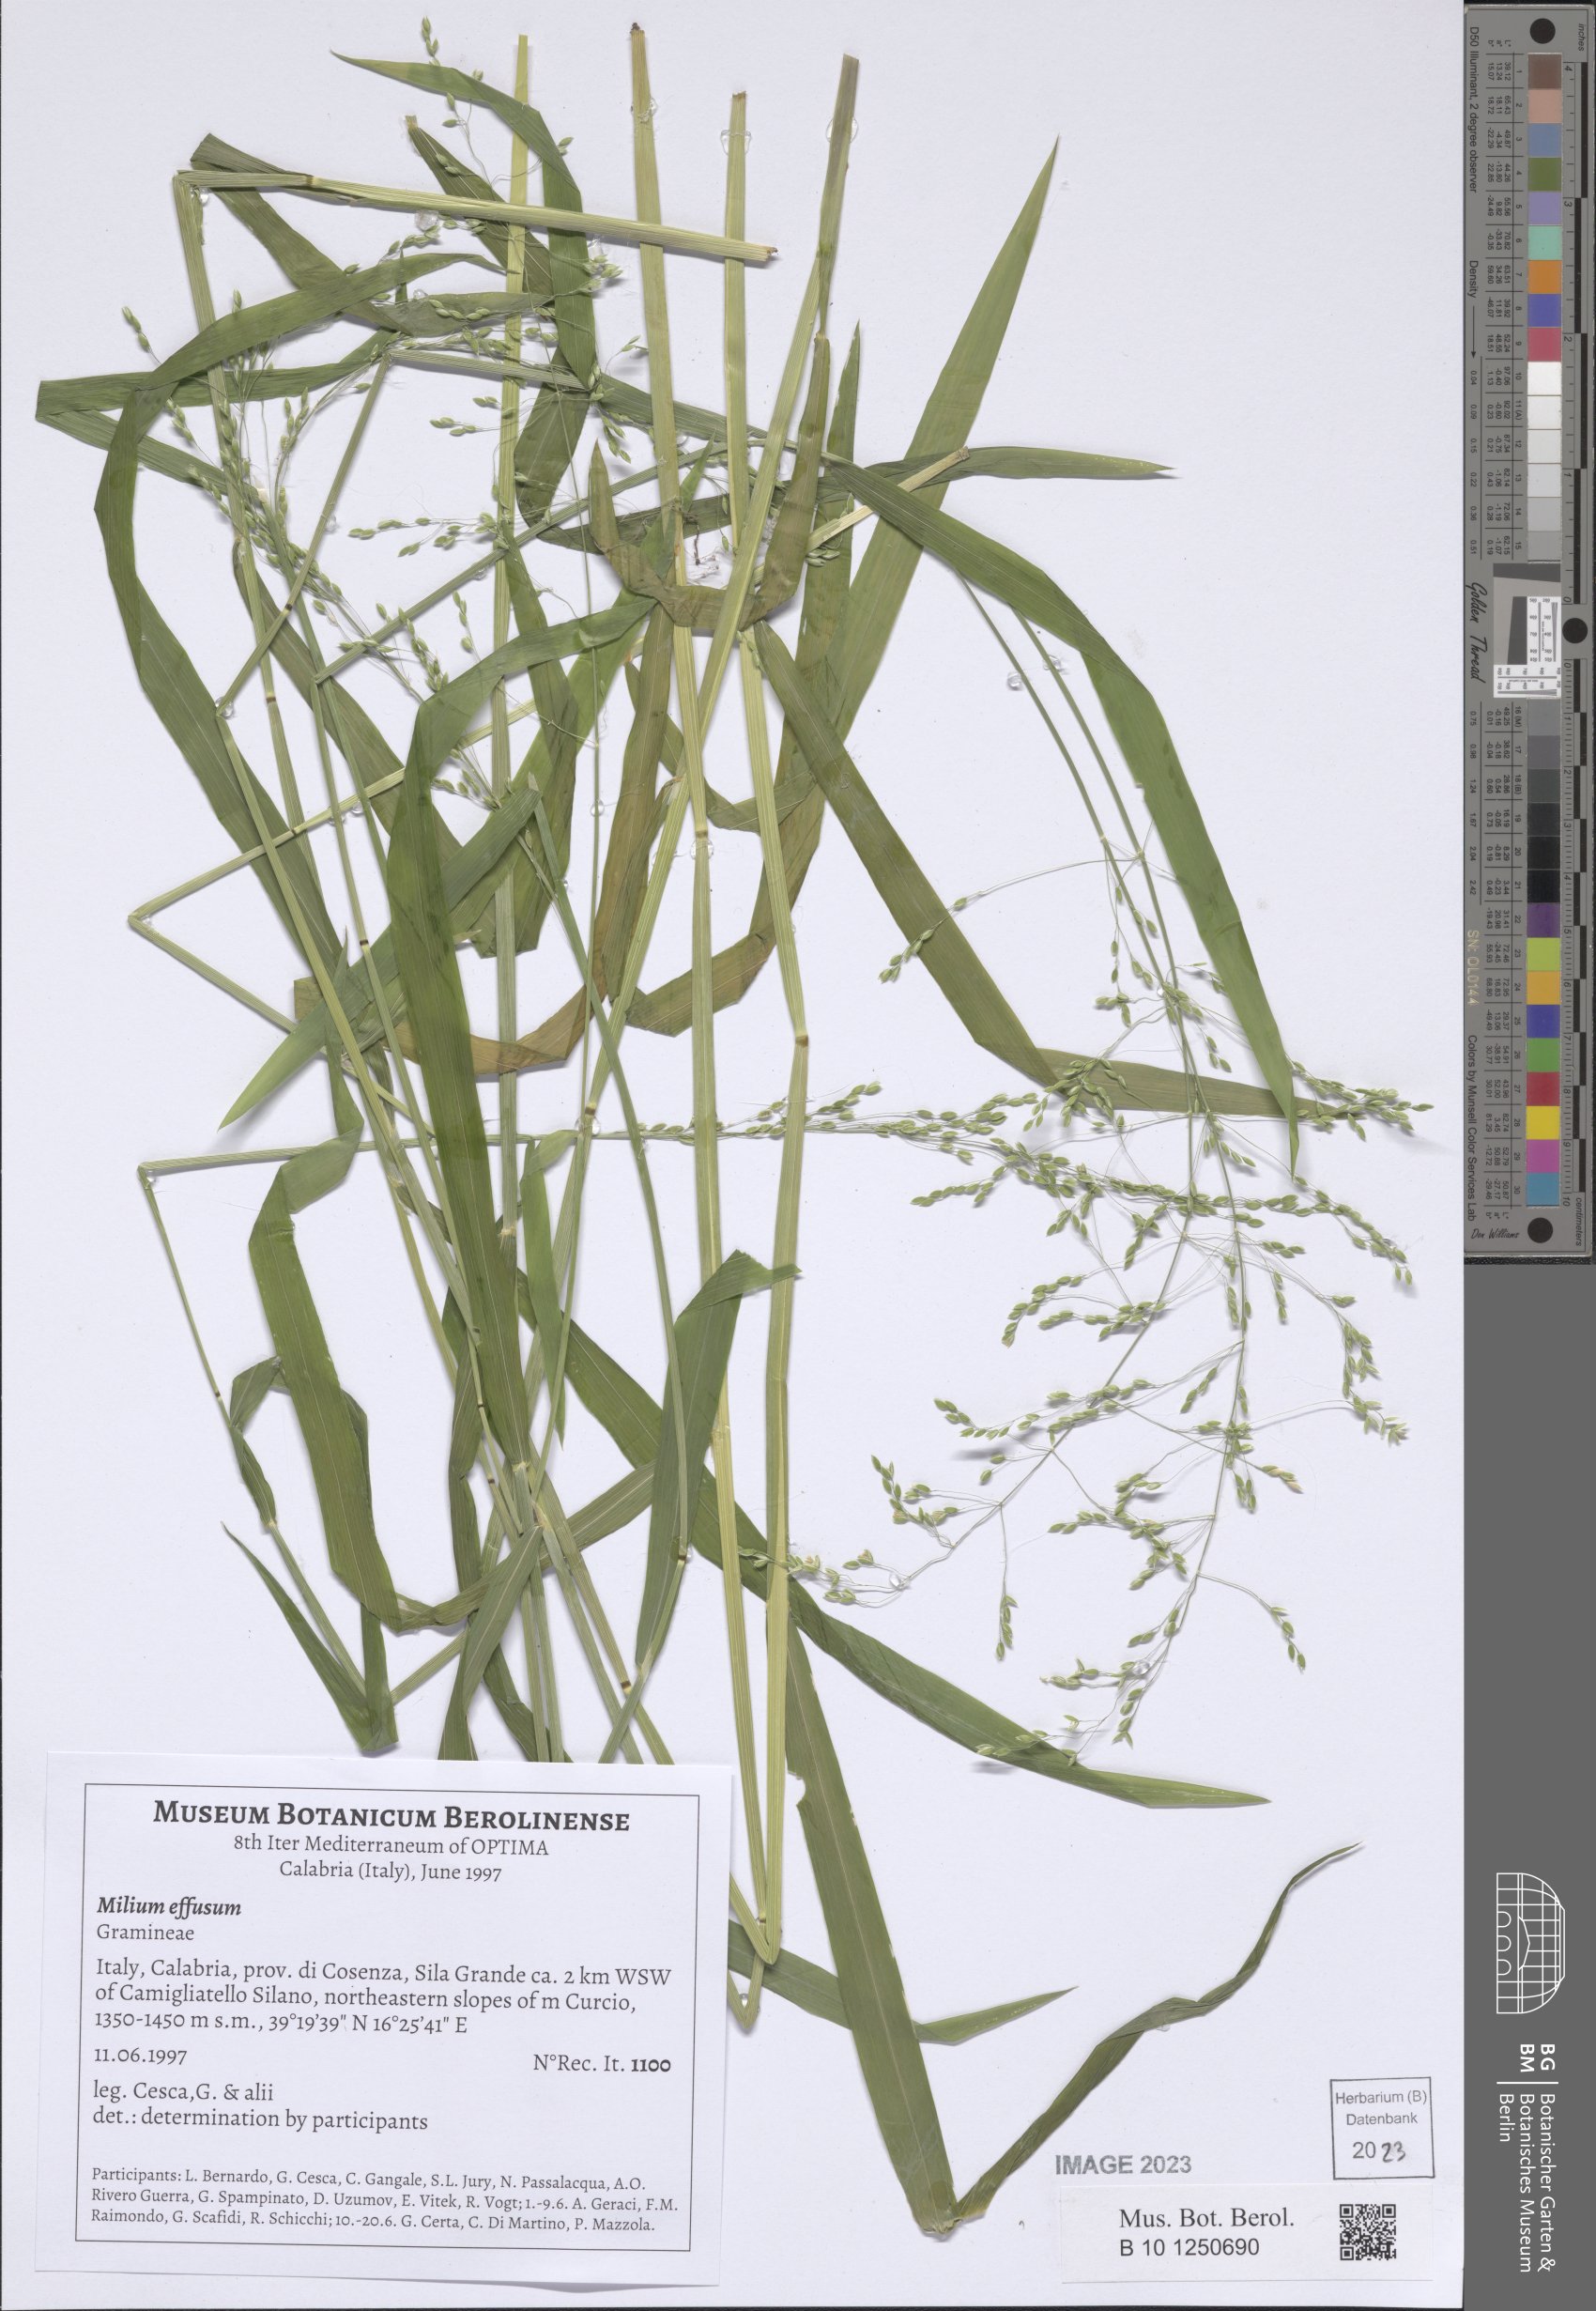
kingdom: Plantae
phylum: Tracheophyta
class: Liliopsida
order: Poales
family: Poaceae
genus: Milium
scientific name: Milium effusum
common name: Wood millet
